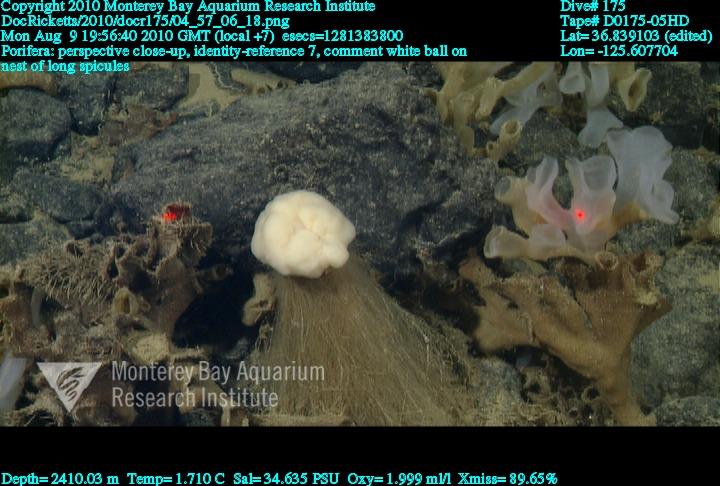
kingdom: Animalia
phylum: Porifera
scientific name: Porifera
